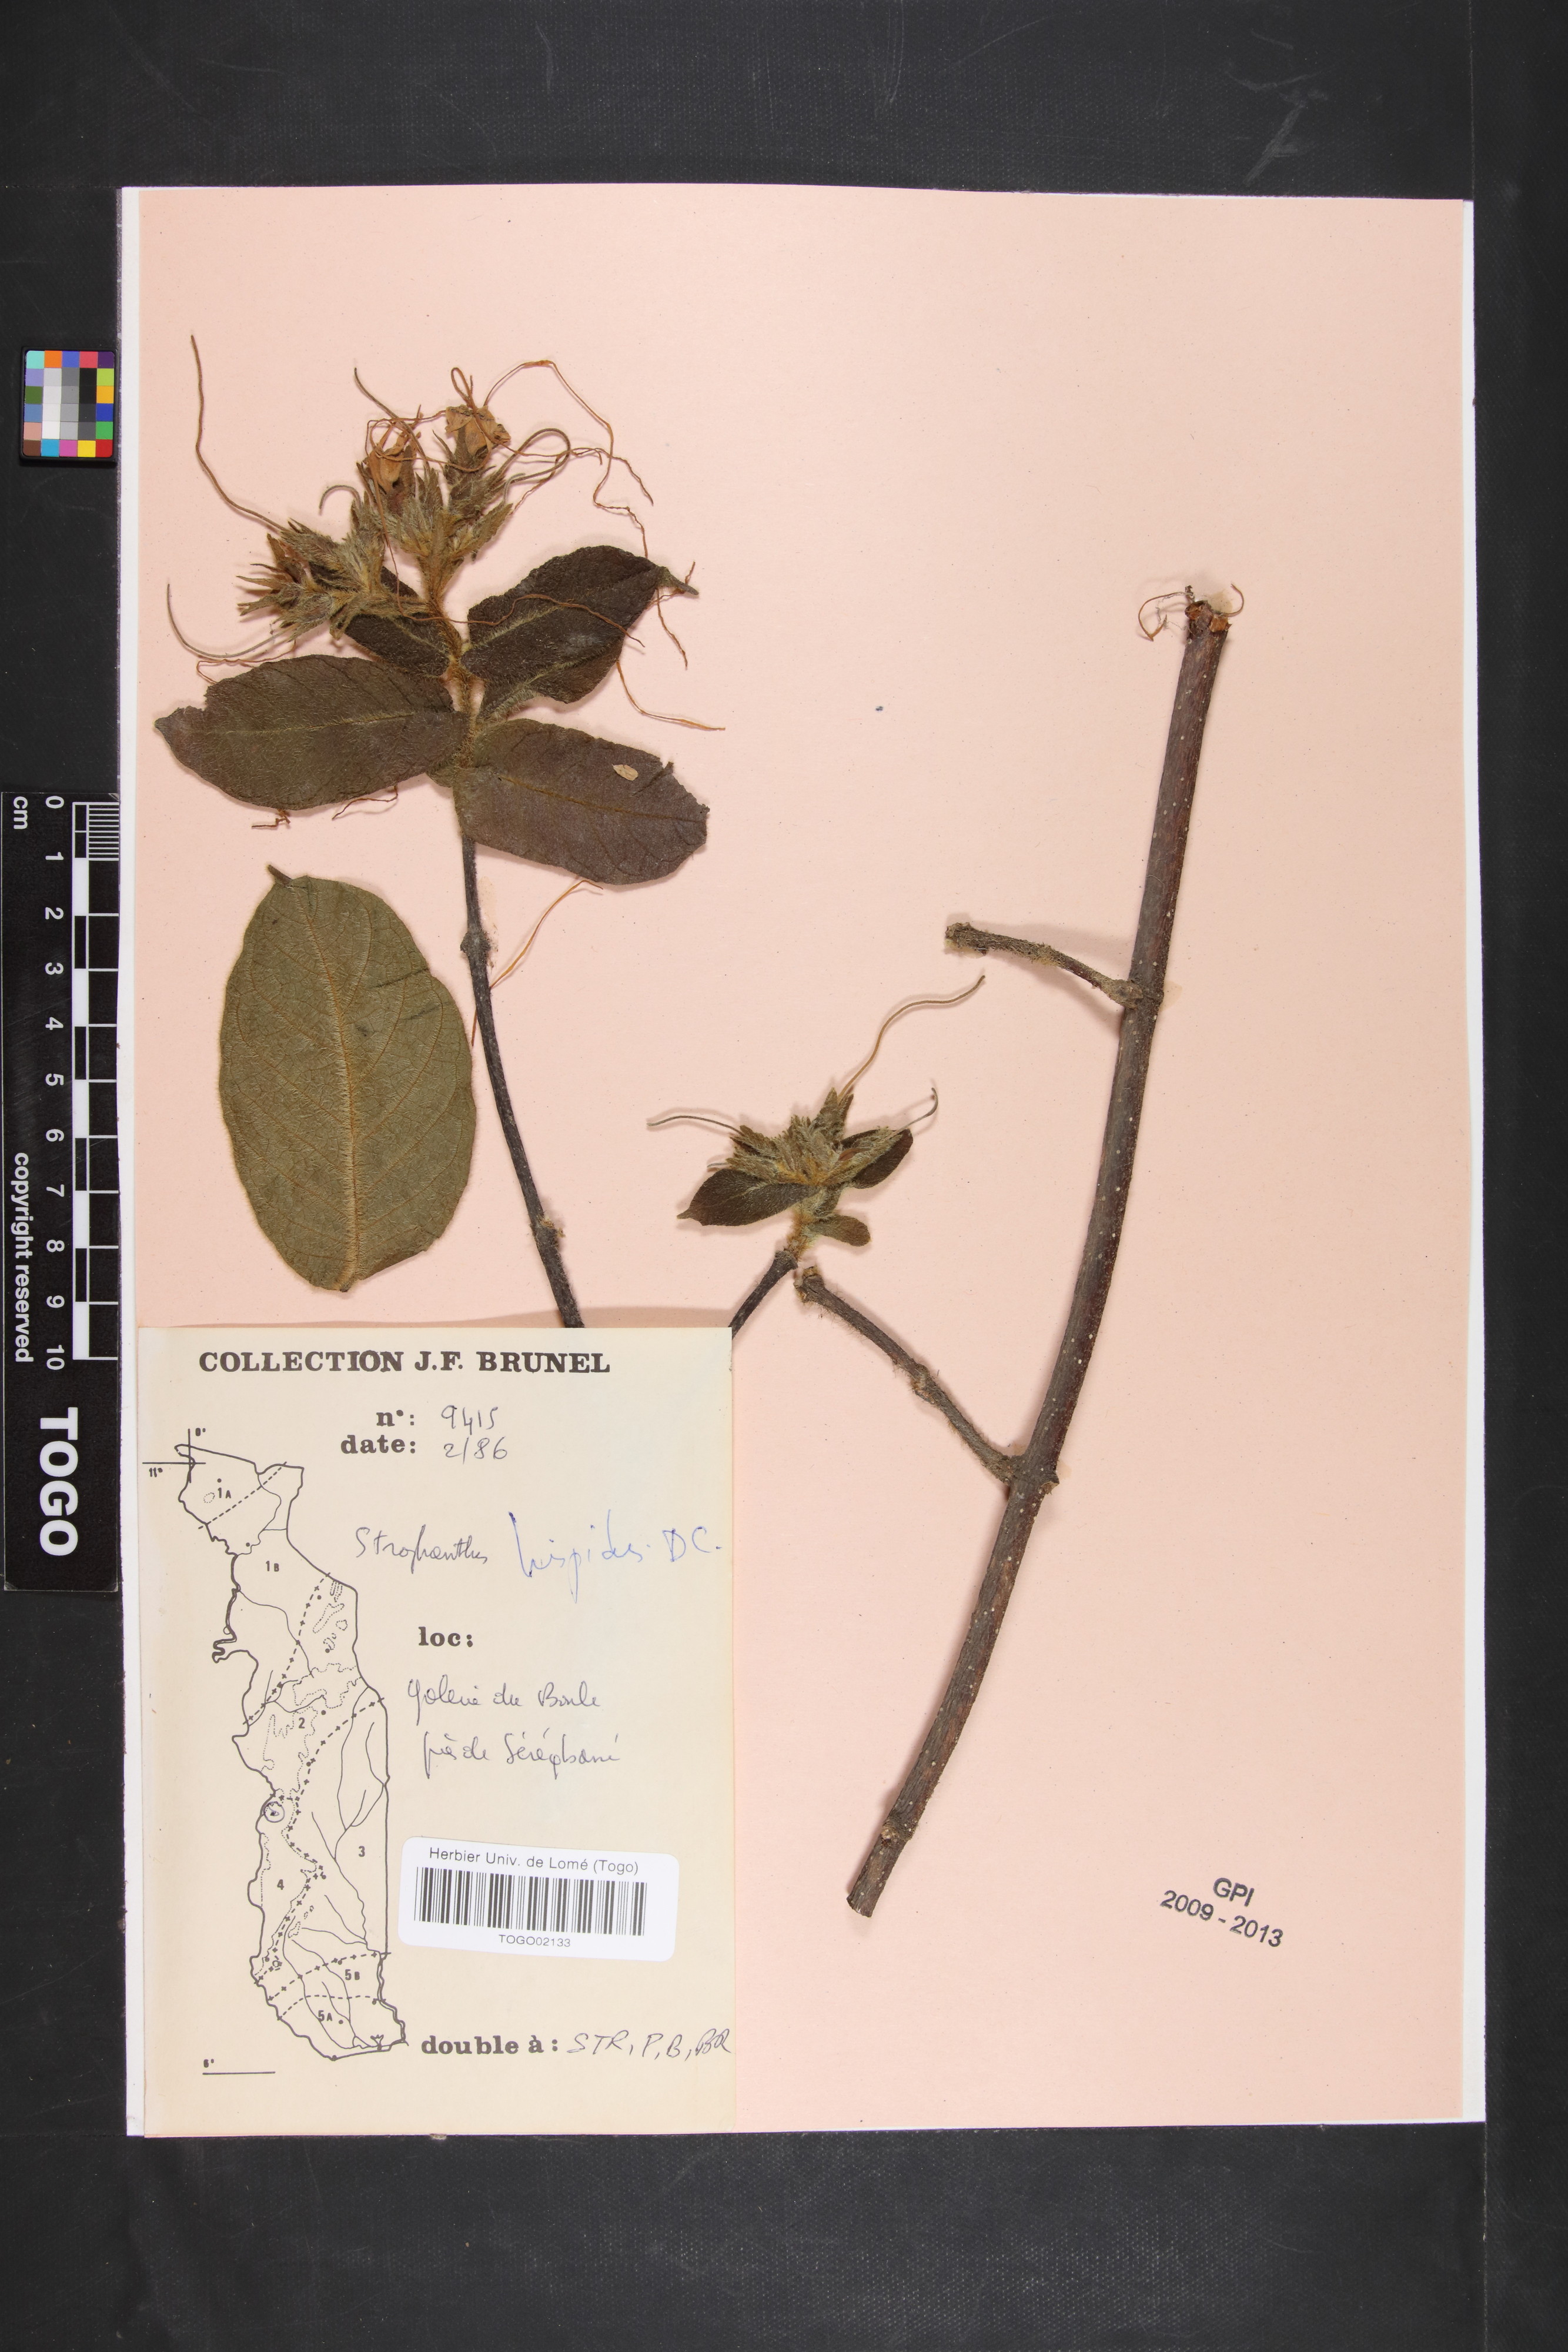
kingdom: Plantae
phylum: Tracheophyta
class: Magnoliopsida
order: Gentianales
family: Apocynaceae
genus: Strophanthus
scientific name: Strophanthus hispidus
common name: Hairy strophanthus
